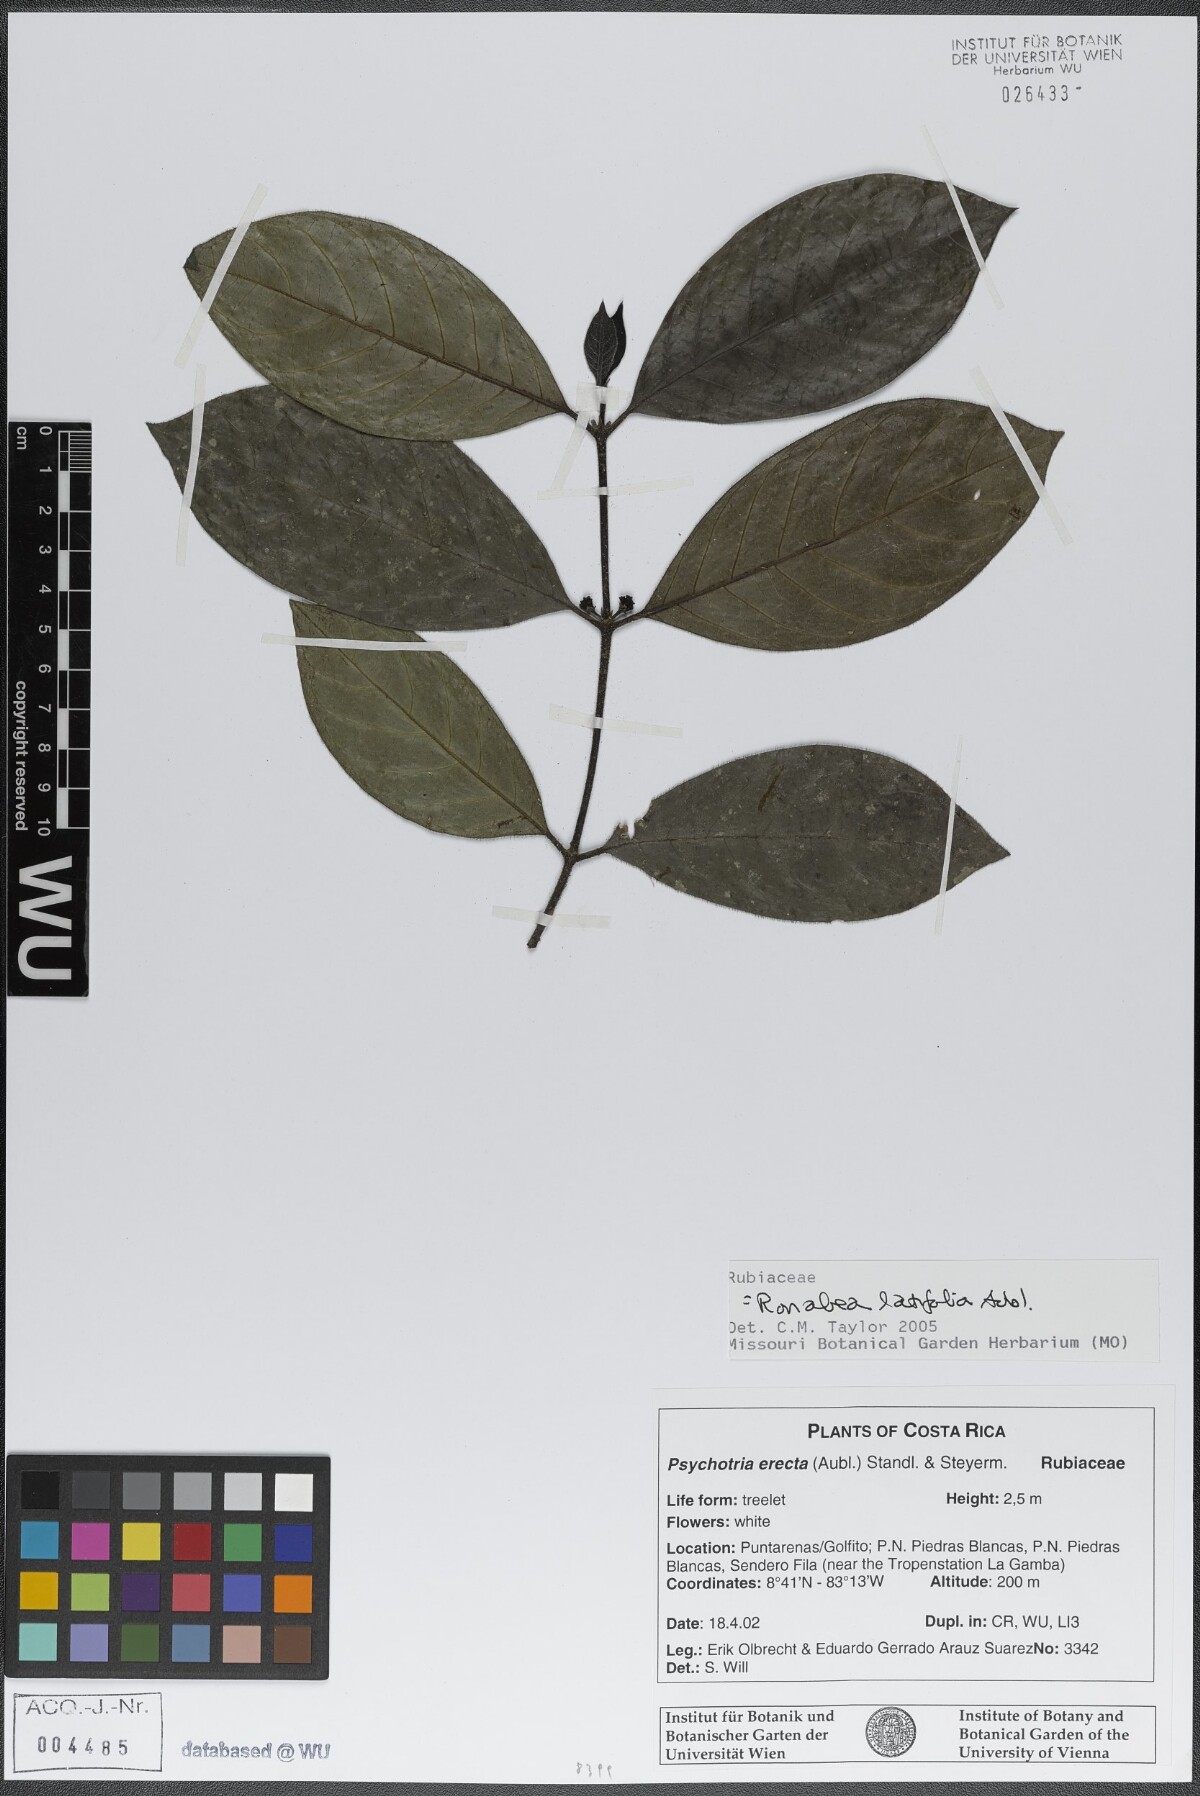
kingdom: Plantae
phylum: Tracheophyta
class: Magnoliopsida
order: Gentianales
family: Rubiaceae
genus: Ronabea
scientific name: Ronabea latifolia
